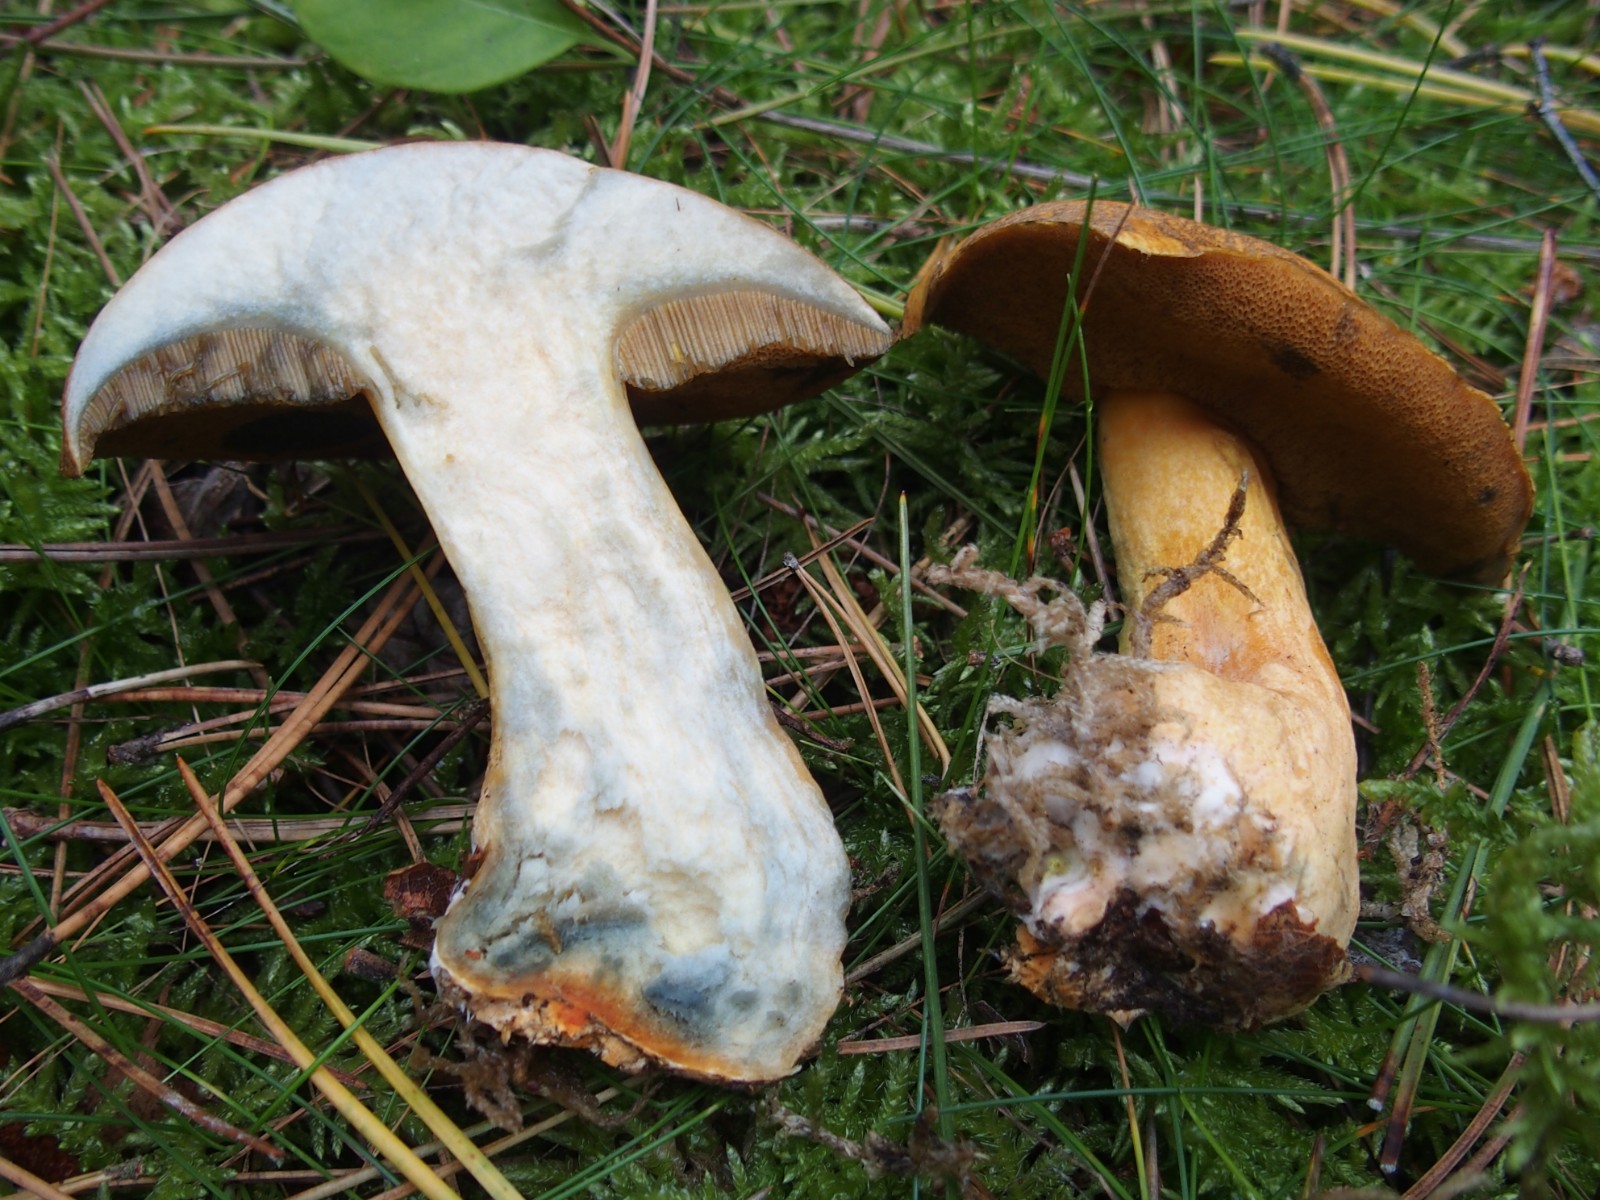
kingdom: Fungi
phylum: Basidiomycota
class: Agaricomycetes
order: Boletales
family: Suillaceae
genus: Suillus
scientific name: Suillus variegatus
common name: broget slimrørhat
